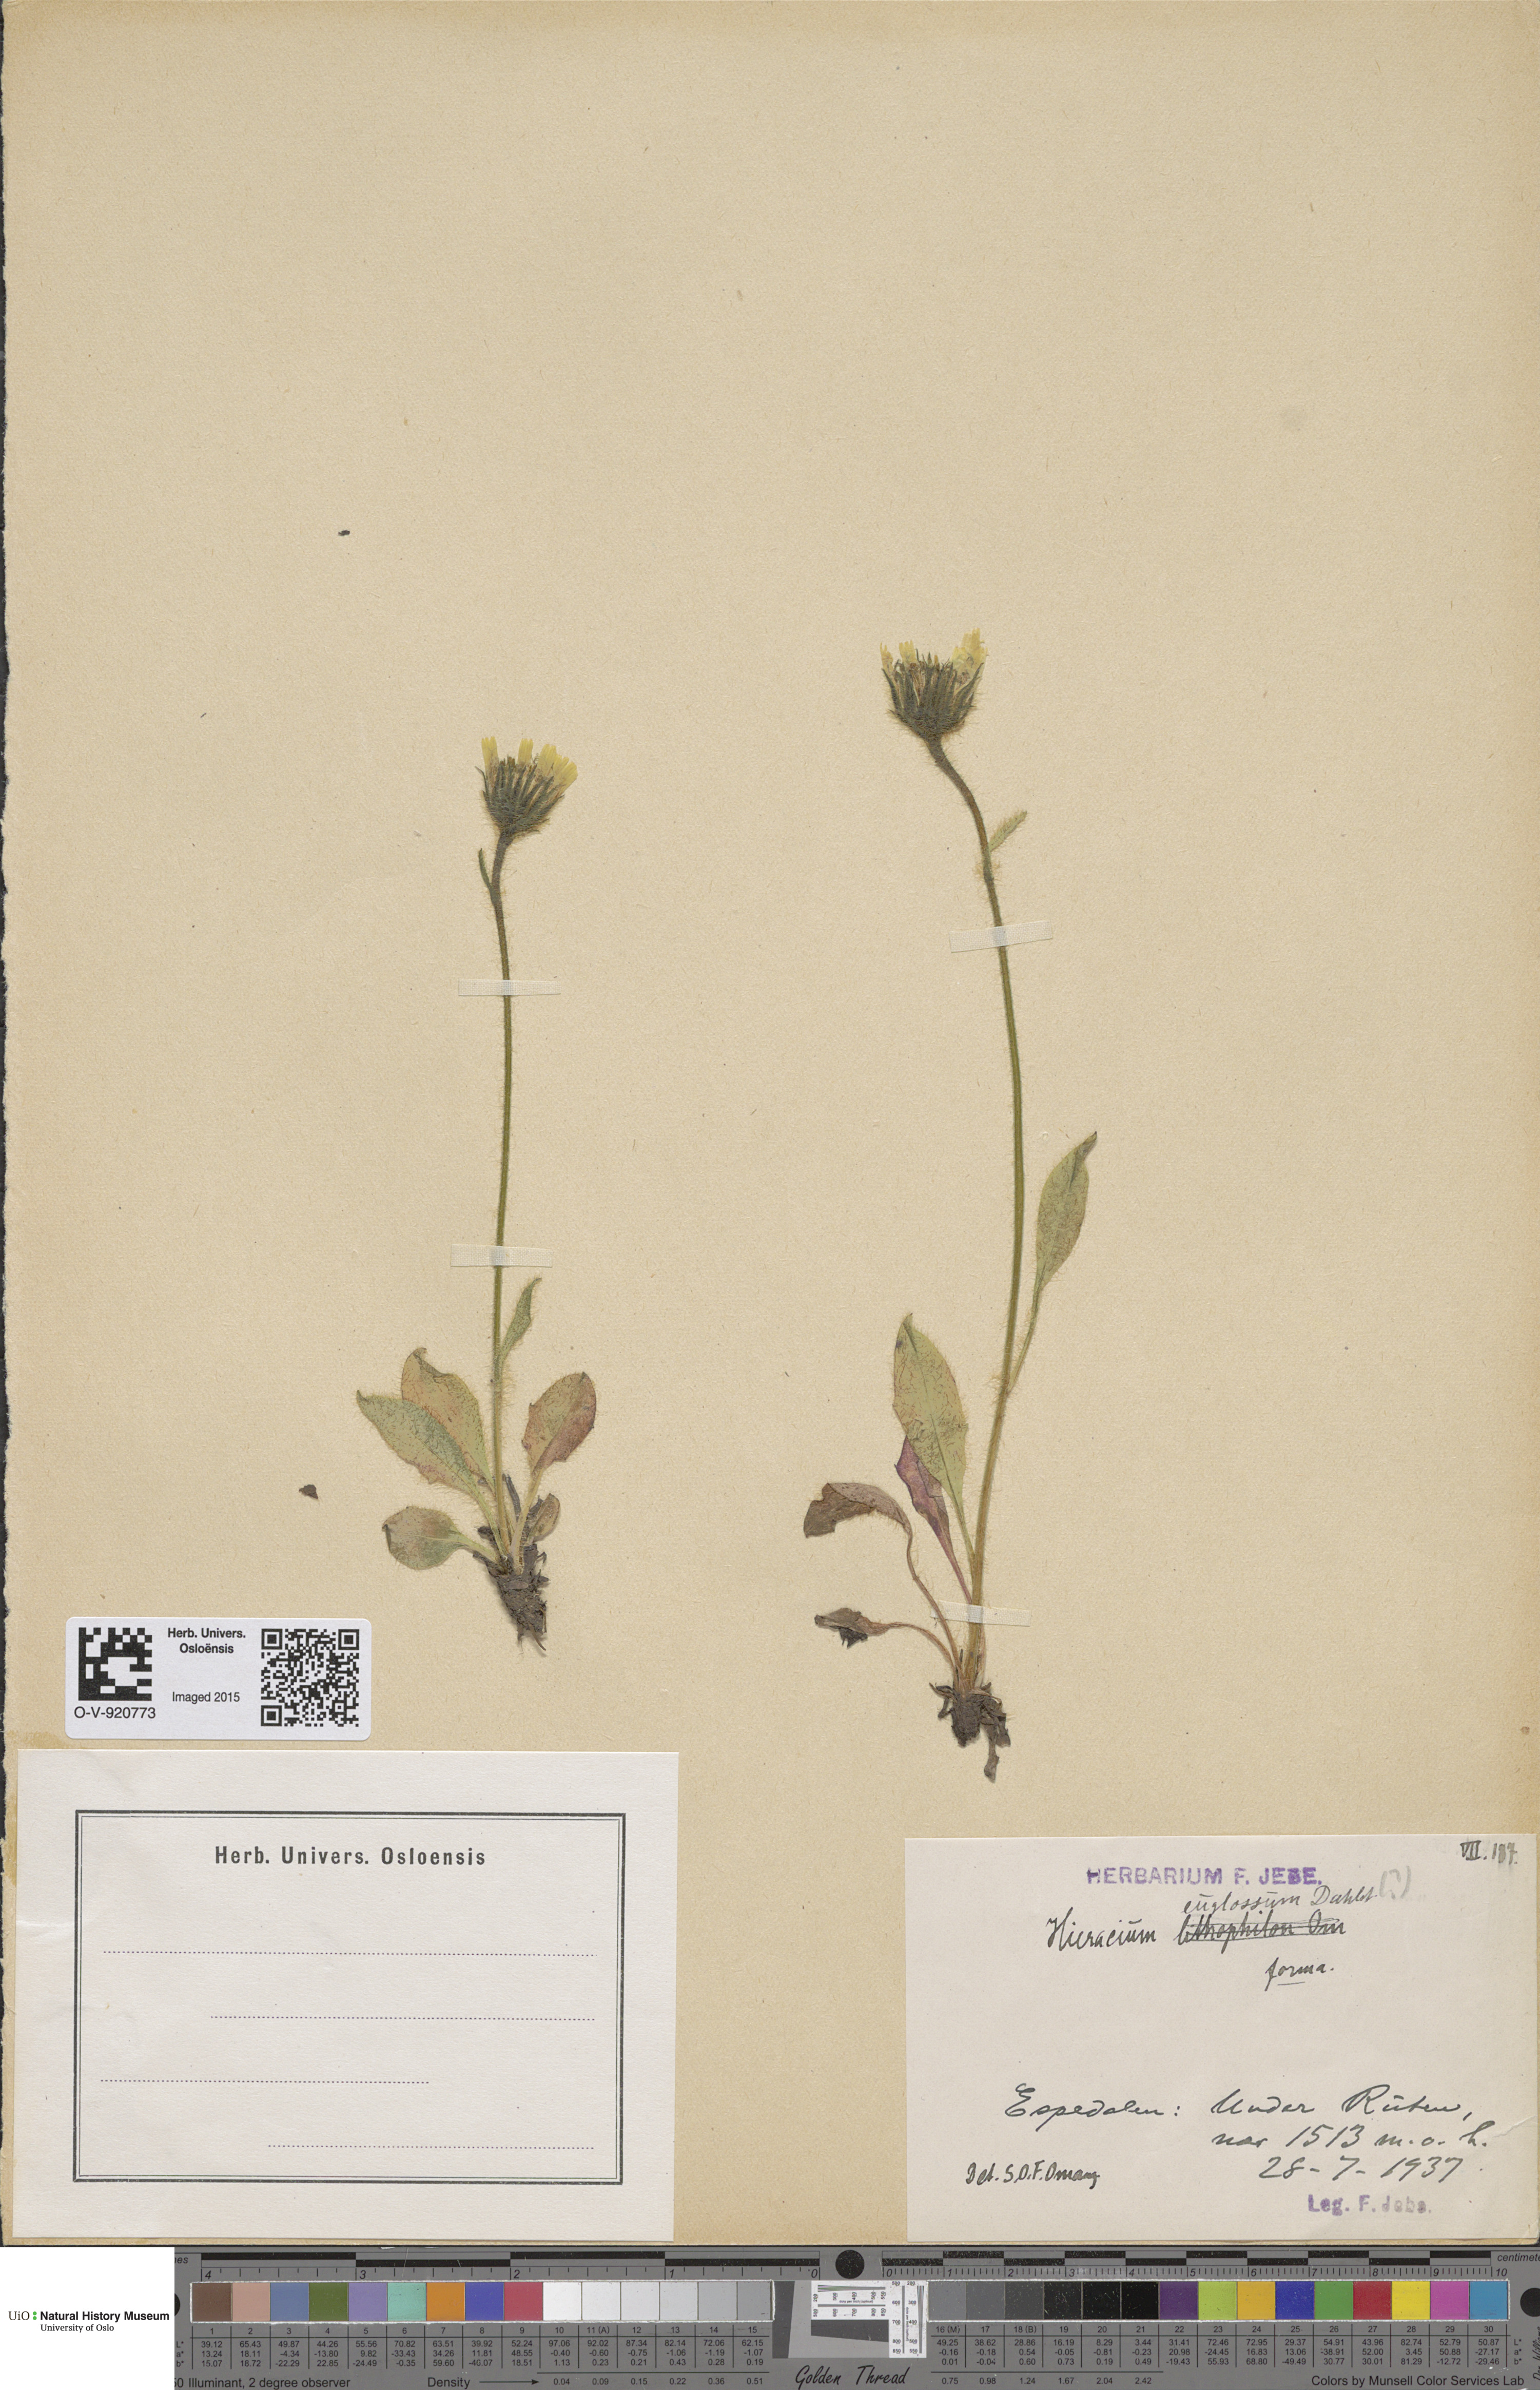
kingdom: Plantae
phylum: Tracheophyta
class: Magnoliopsida
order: Asterales
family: Asteraceae
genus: Hieracium
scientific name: Hieracium
